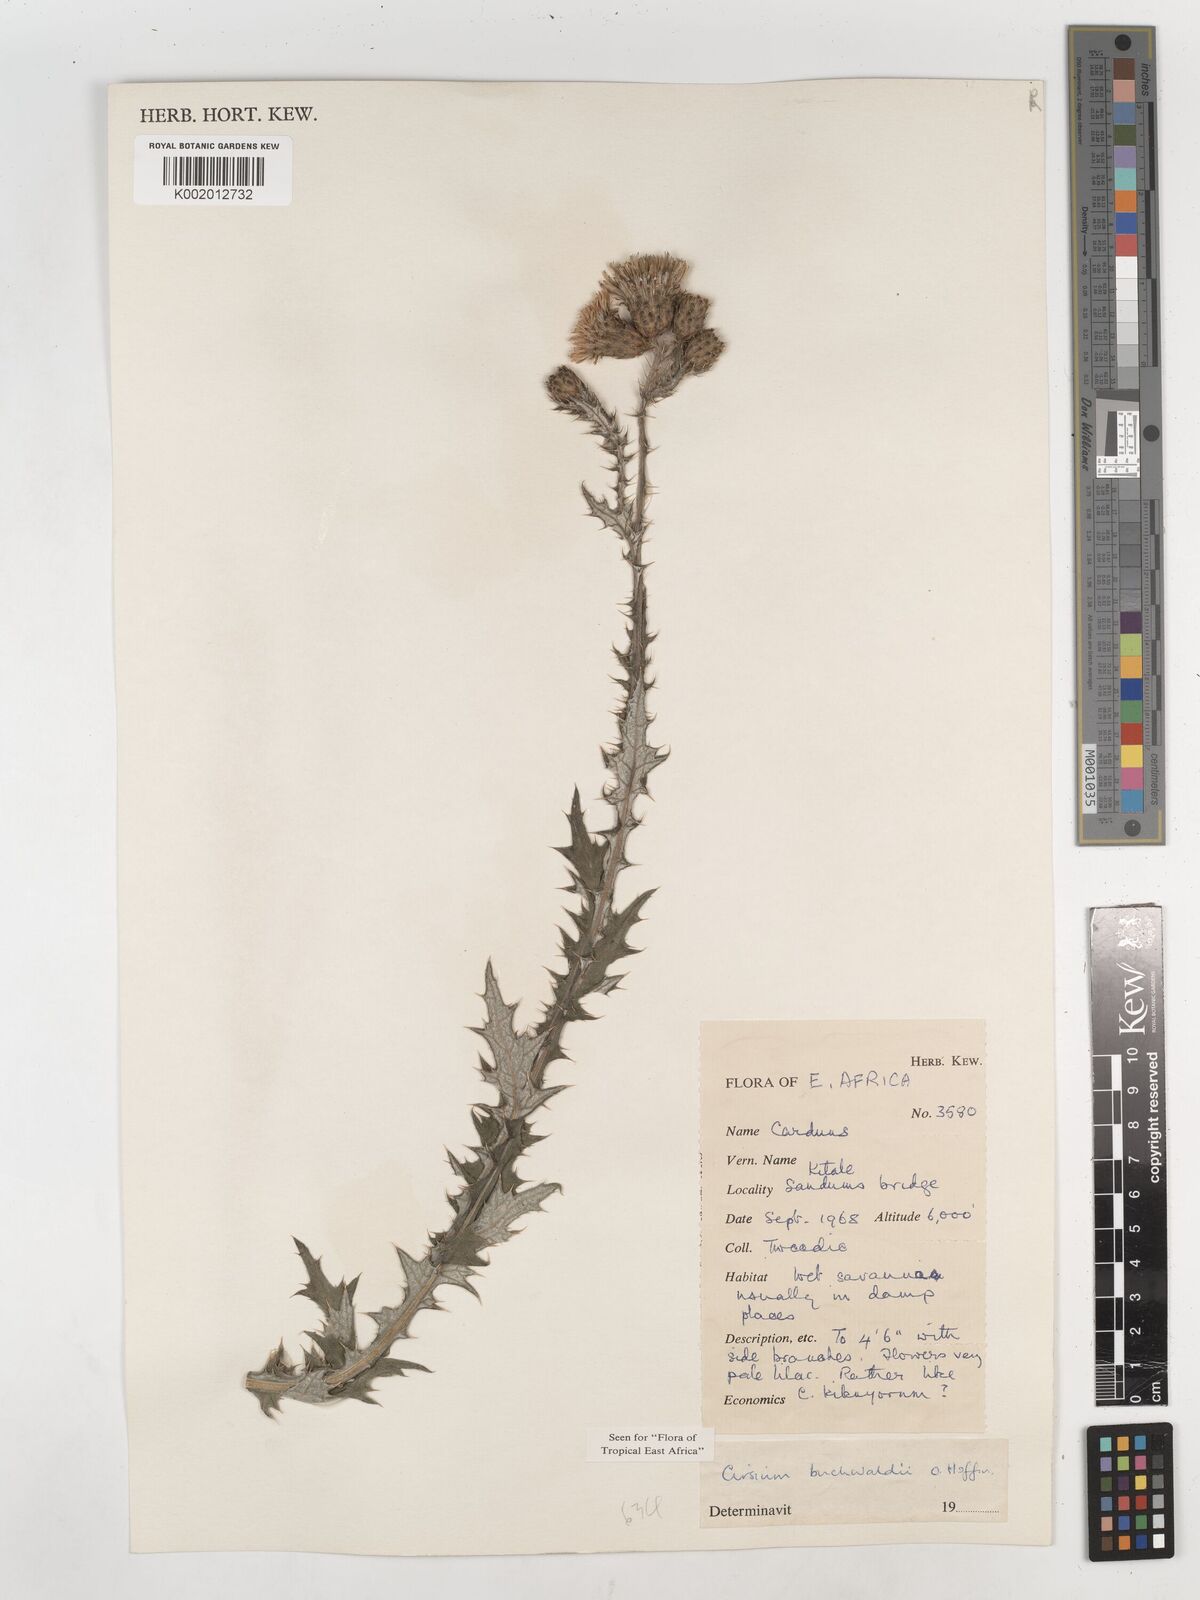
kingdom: Plantae
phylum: Tracheophyta
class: Magnoliopsida
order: Asterales
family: Asteraceae
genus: Cirsium
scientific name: Cirsium buchwaldii
